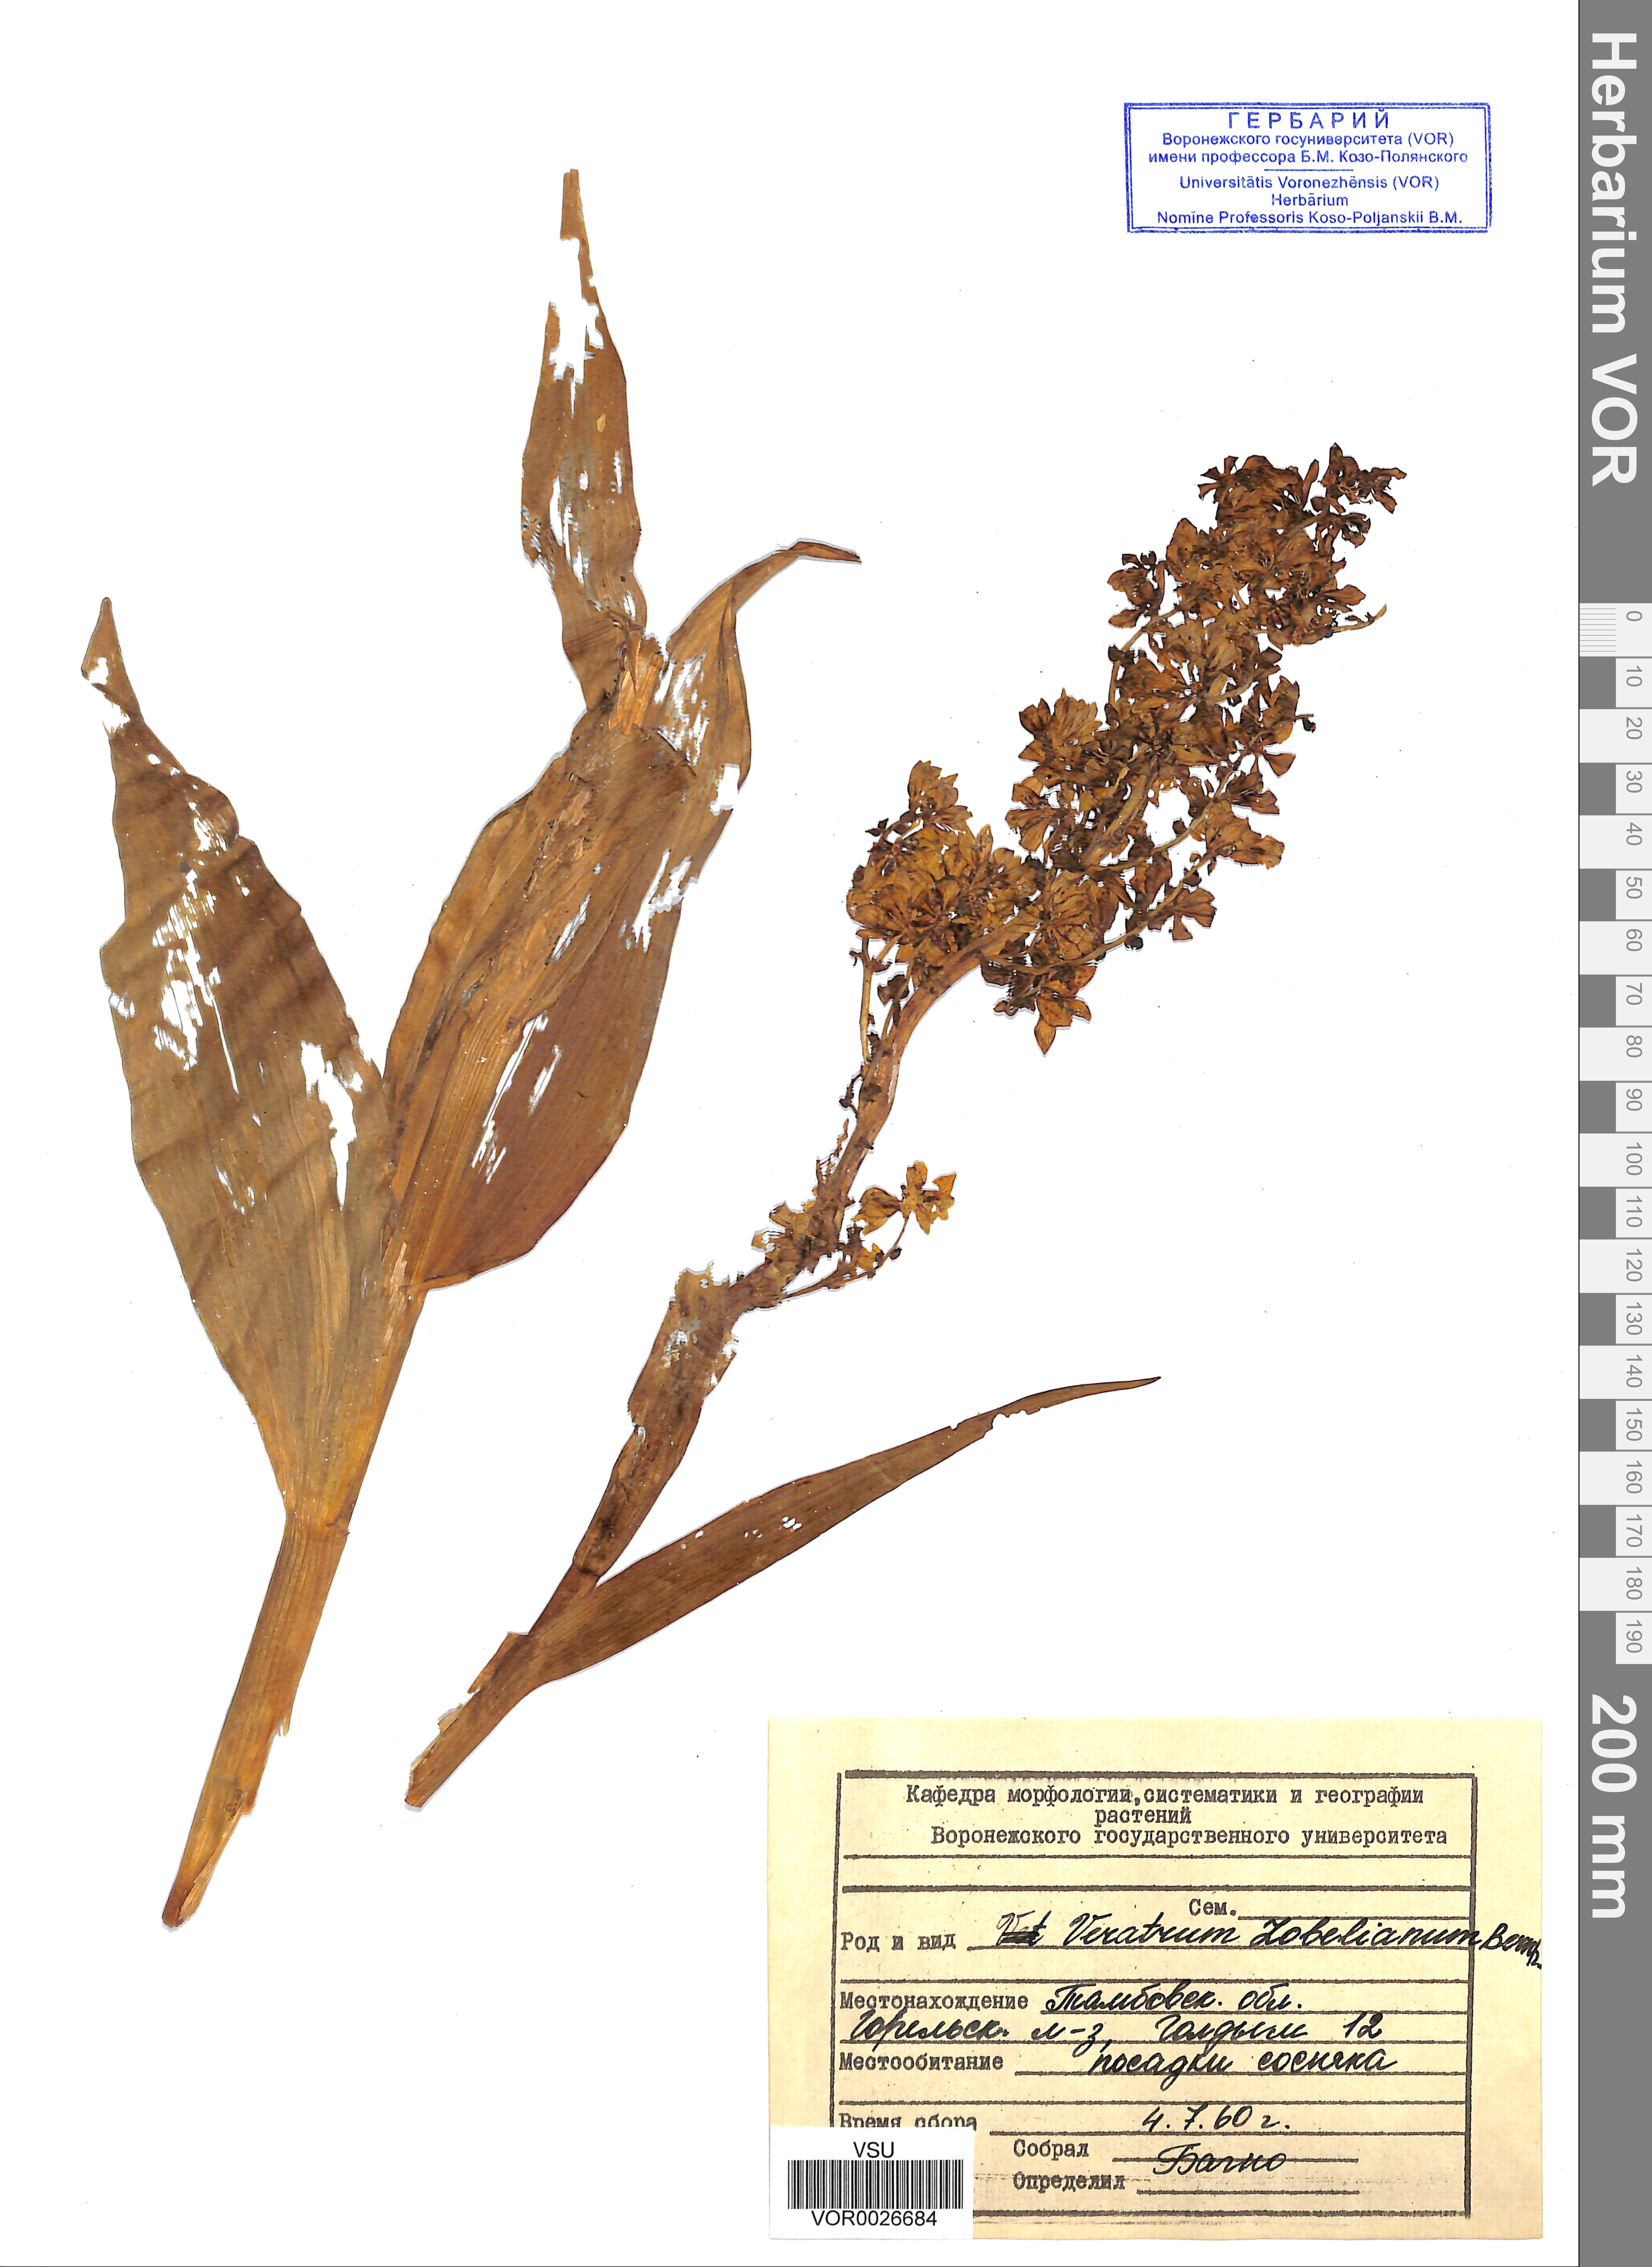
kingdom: Plantae
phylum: Tracheophyta
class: Liliopsida
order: Liliales
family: Melanthiaceae
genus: Veratrum
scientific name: Veratrum lobelianum
